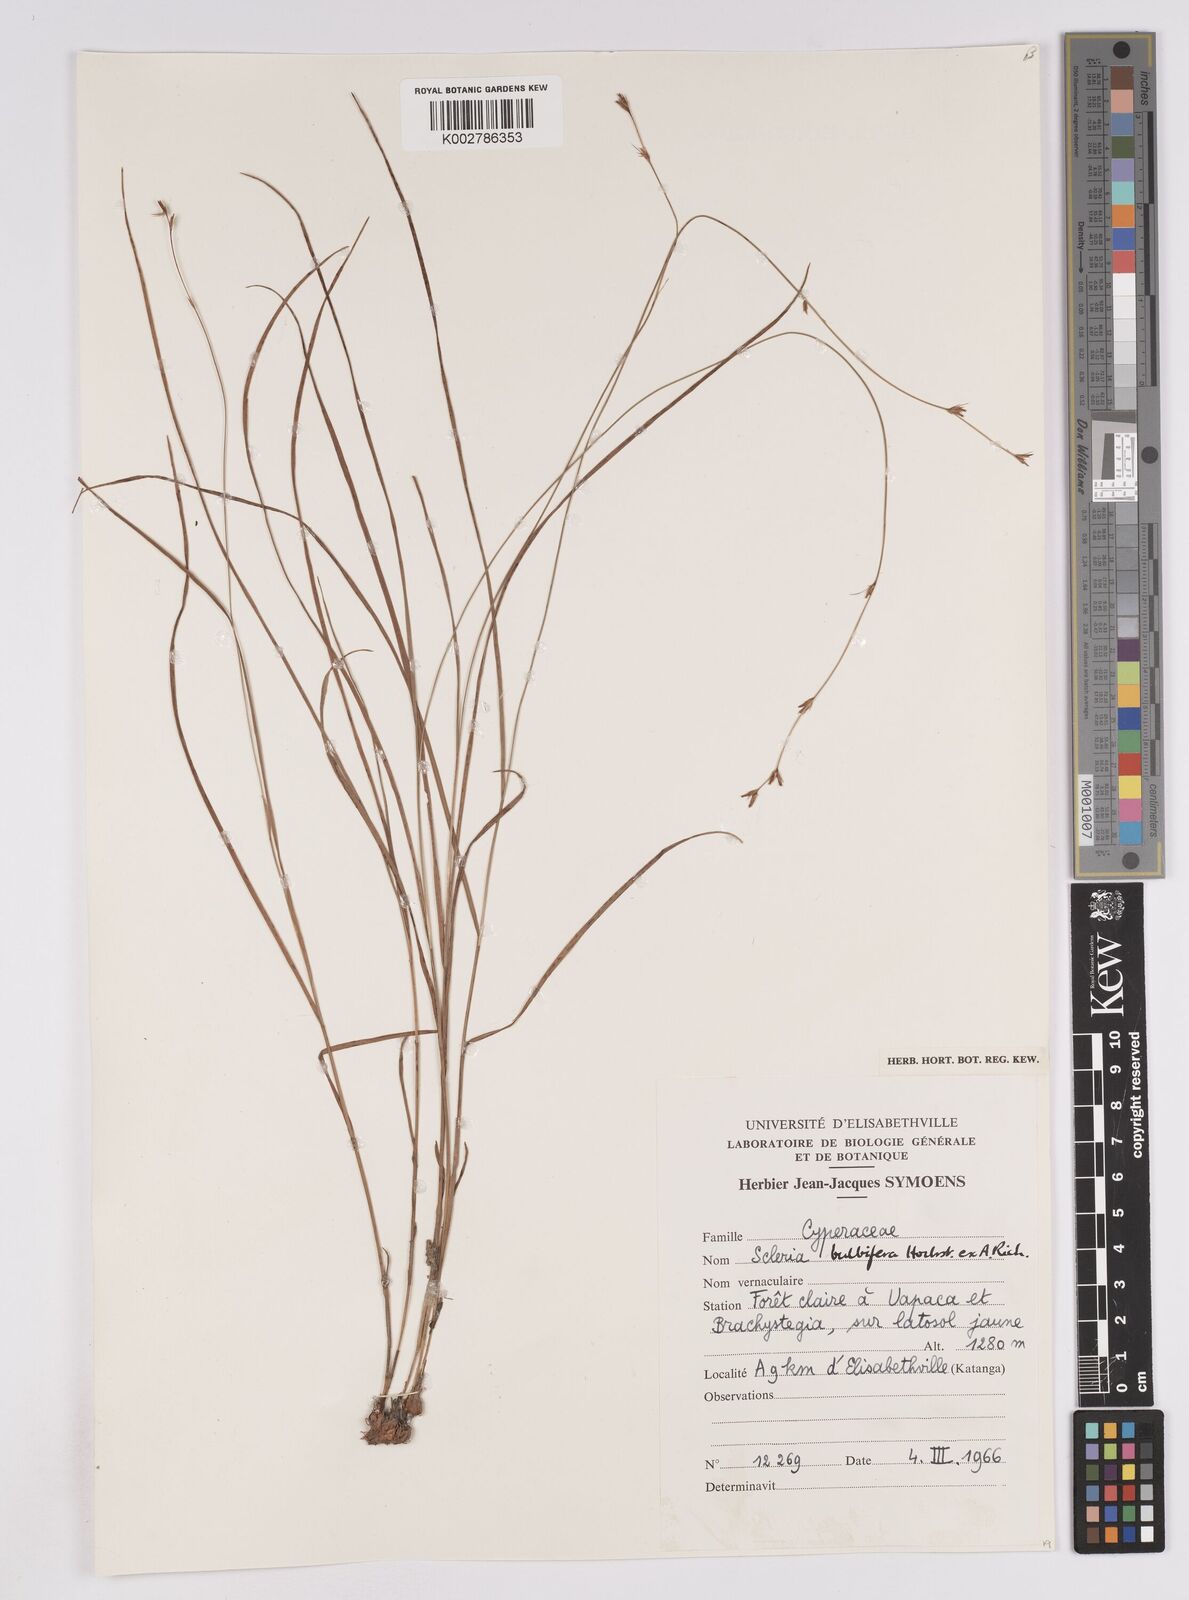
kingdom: Plantae
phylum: Tracheophyta
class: Liliopsida
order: Poales
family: Cyperaceae
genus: Scleria
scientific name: Scleria bulbifera
